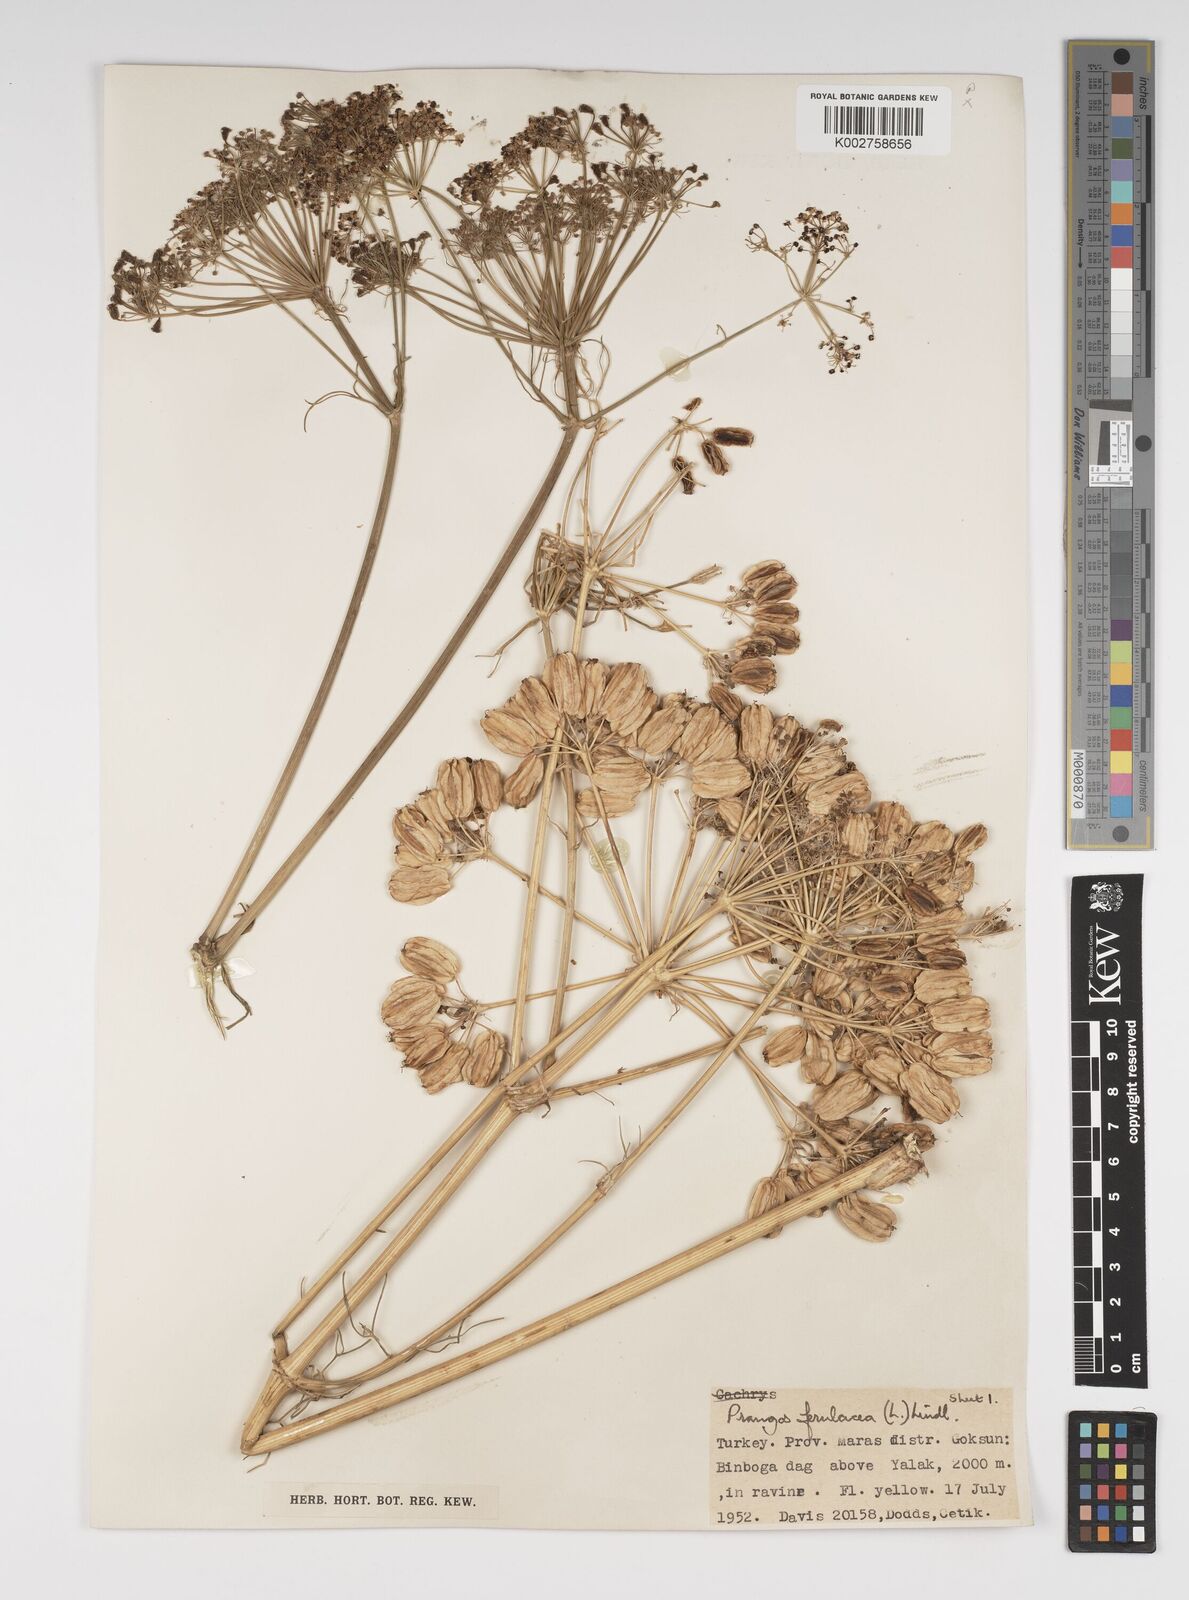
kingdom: Plantae
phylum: Tracheophyta
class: Magnoliopsida
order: Apiales
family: Apiaceae
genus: Prangos
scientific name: Prangos ferulacea
